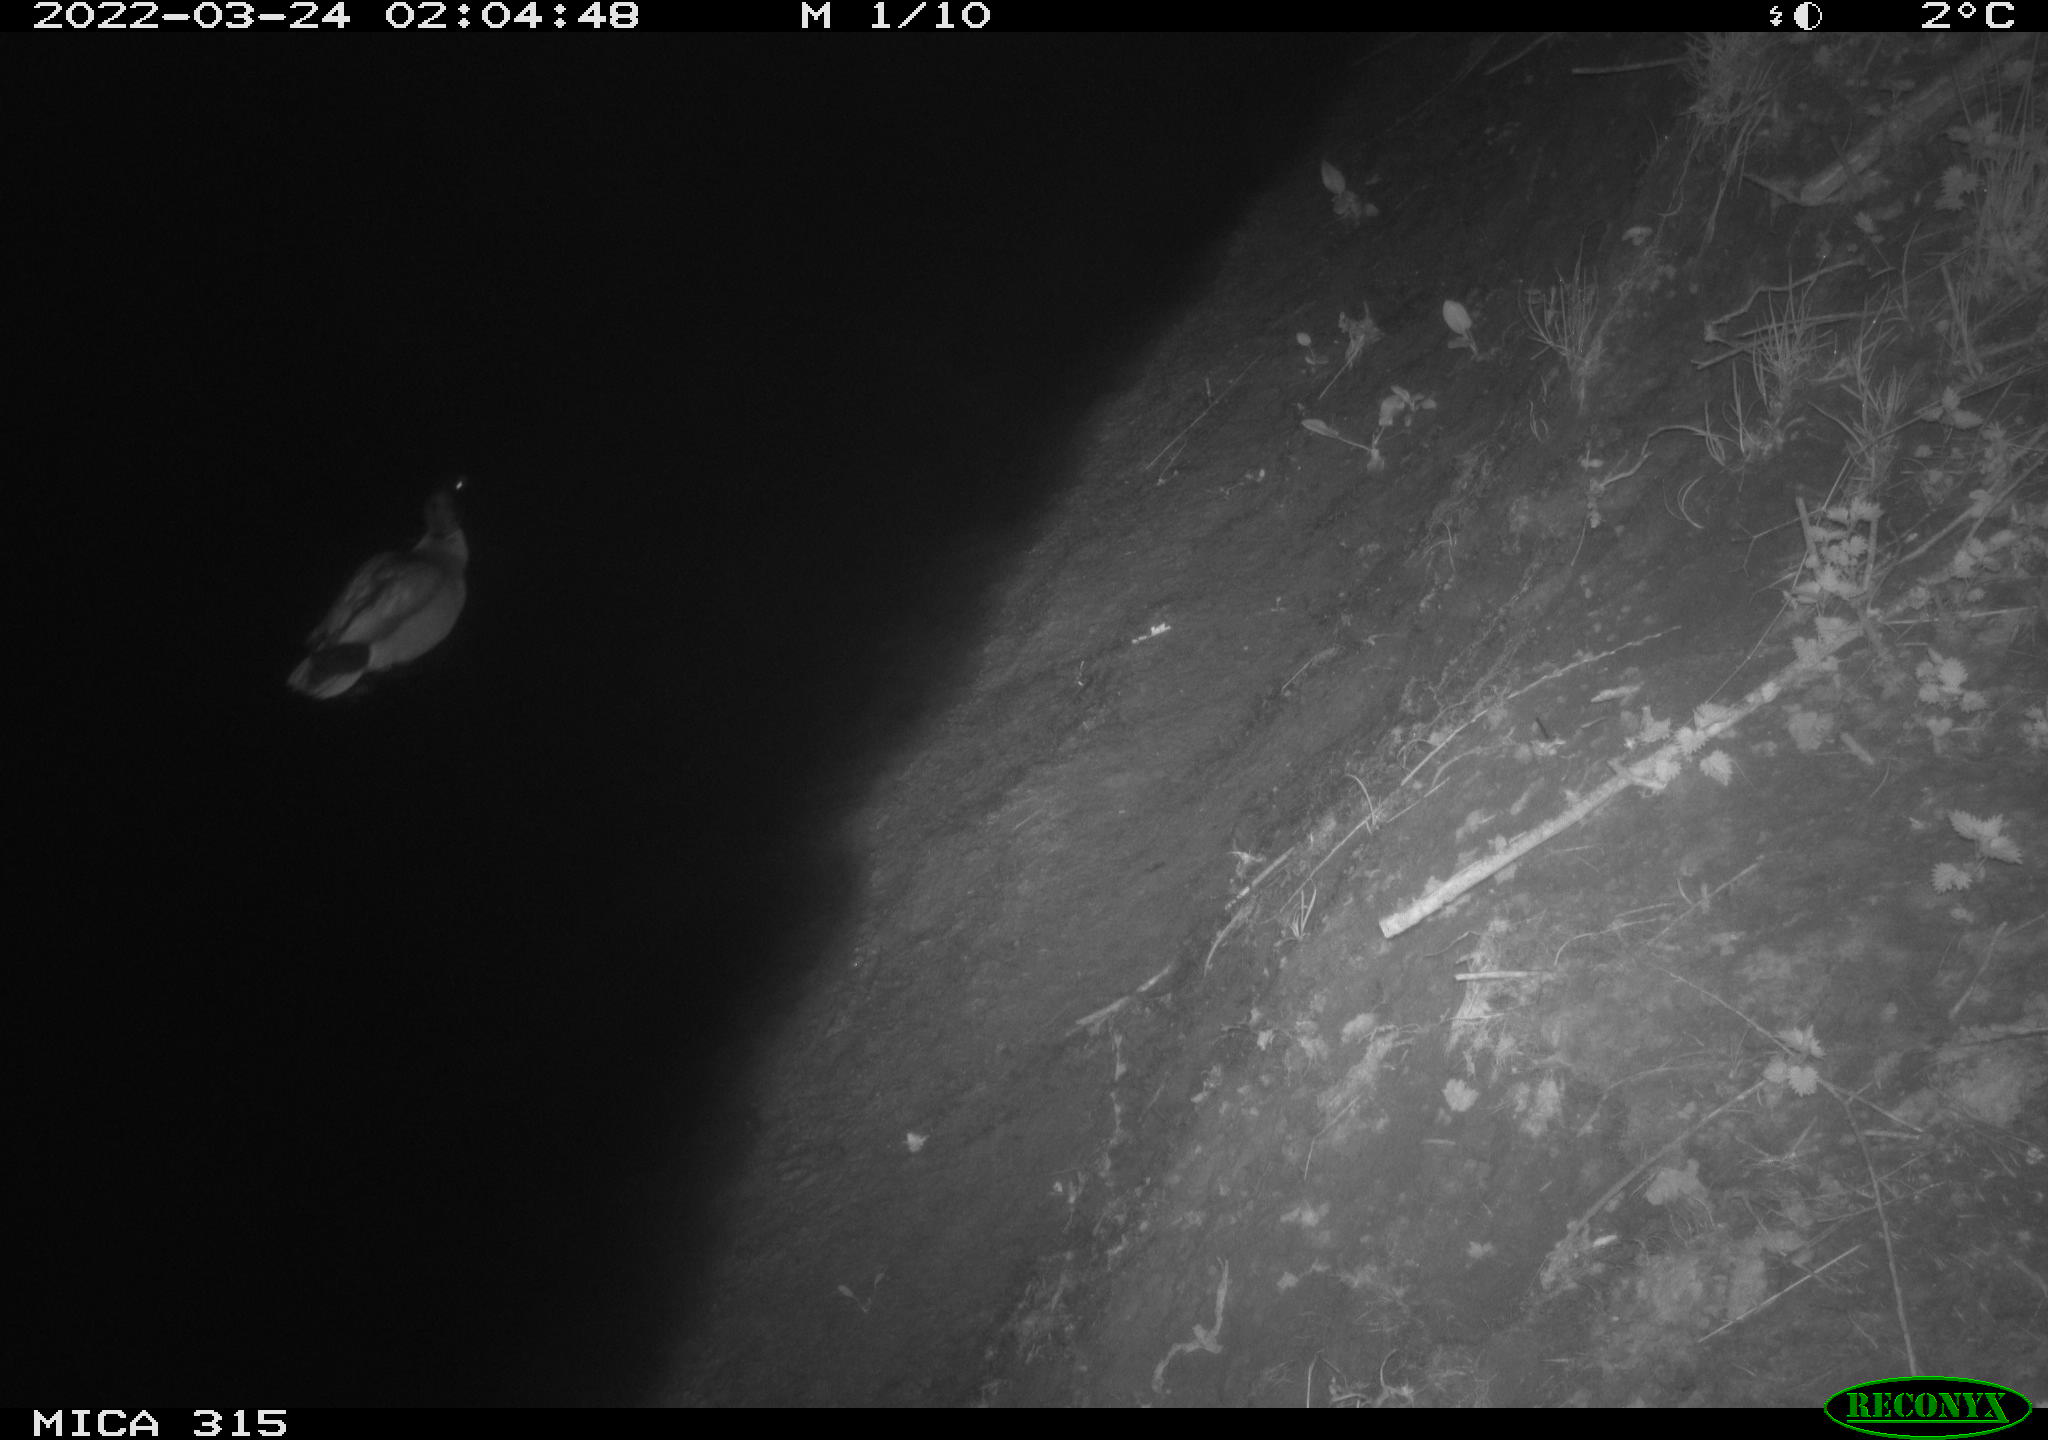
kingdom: Animalia
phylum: Chordata
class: Aves
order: Anseriformes
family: Anatidae
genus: Anas
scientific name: Anas platyrhynchos
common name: Mallard
